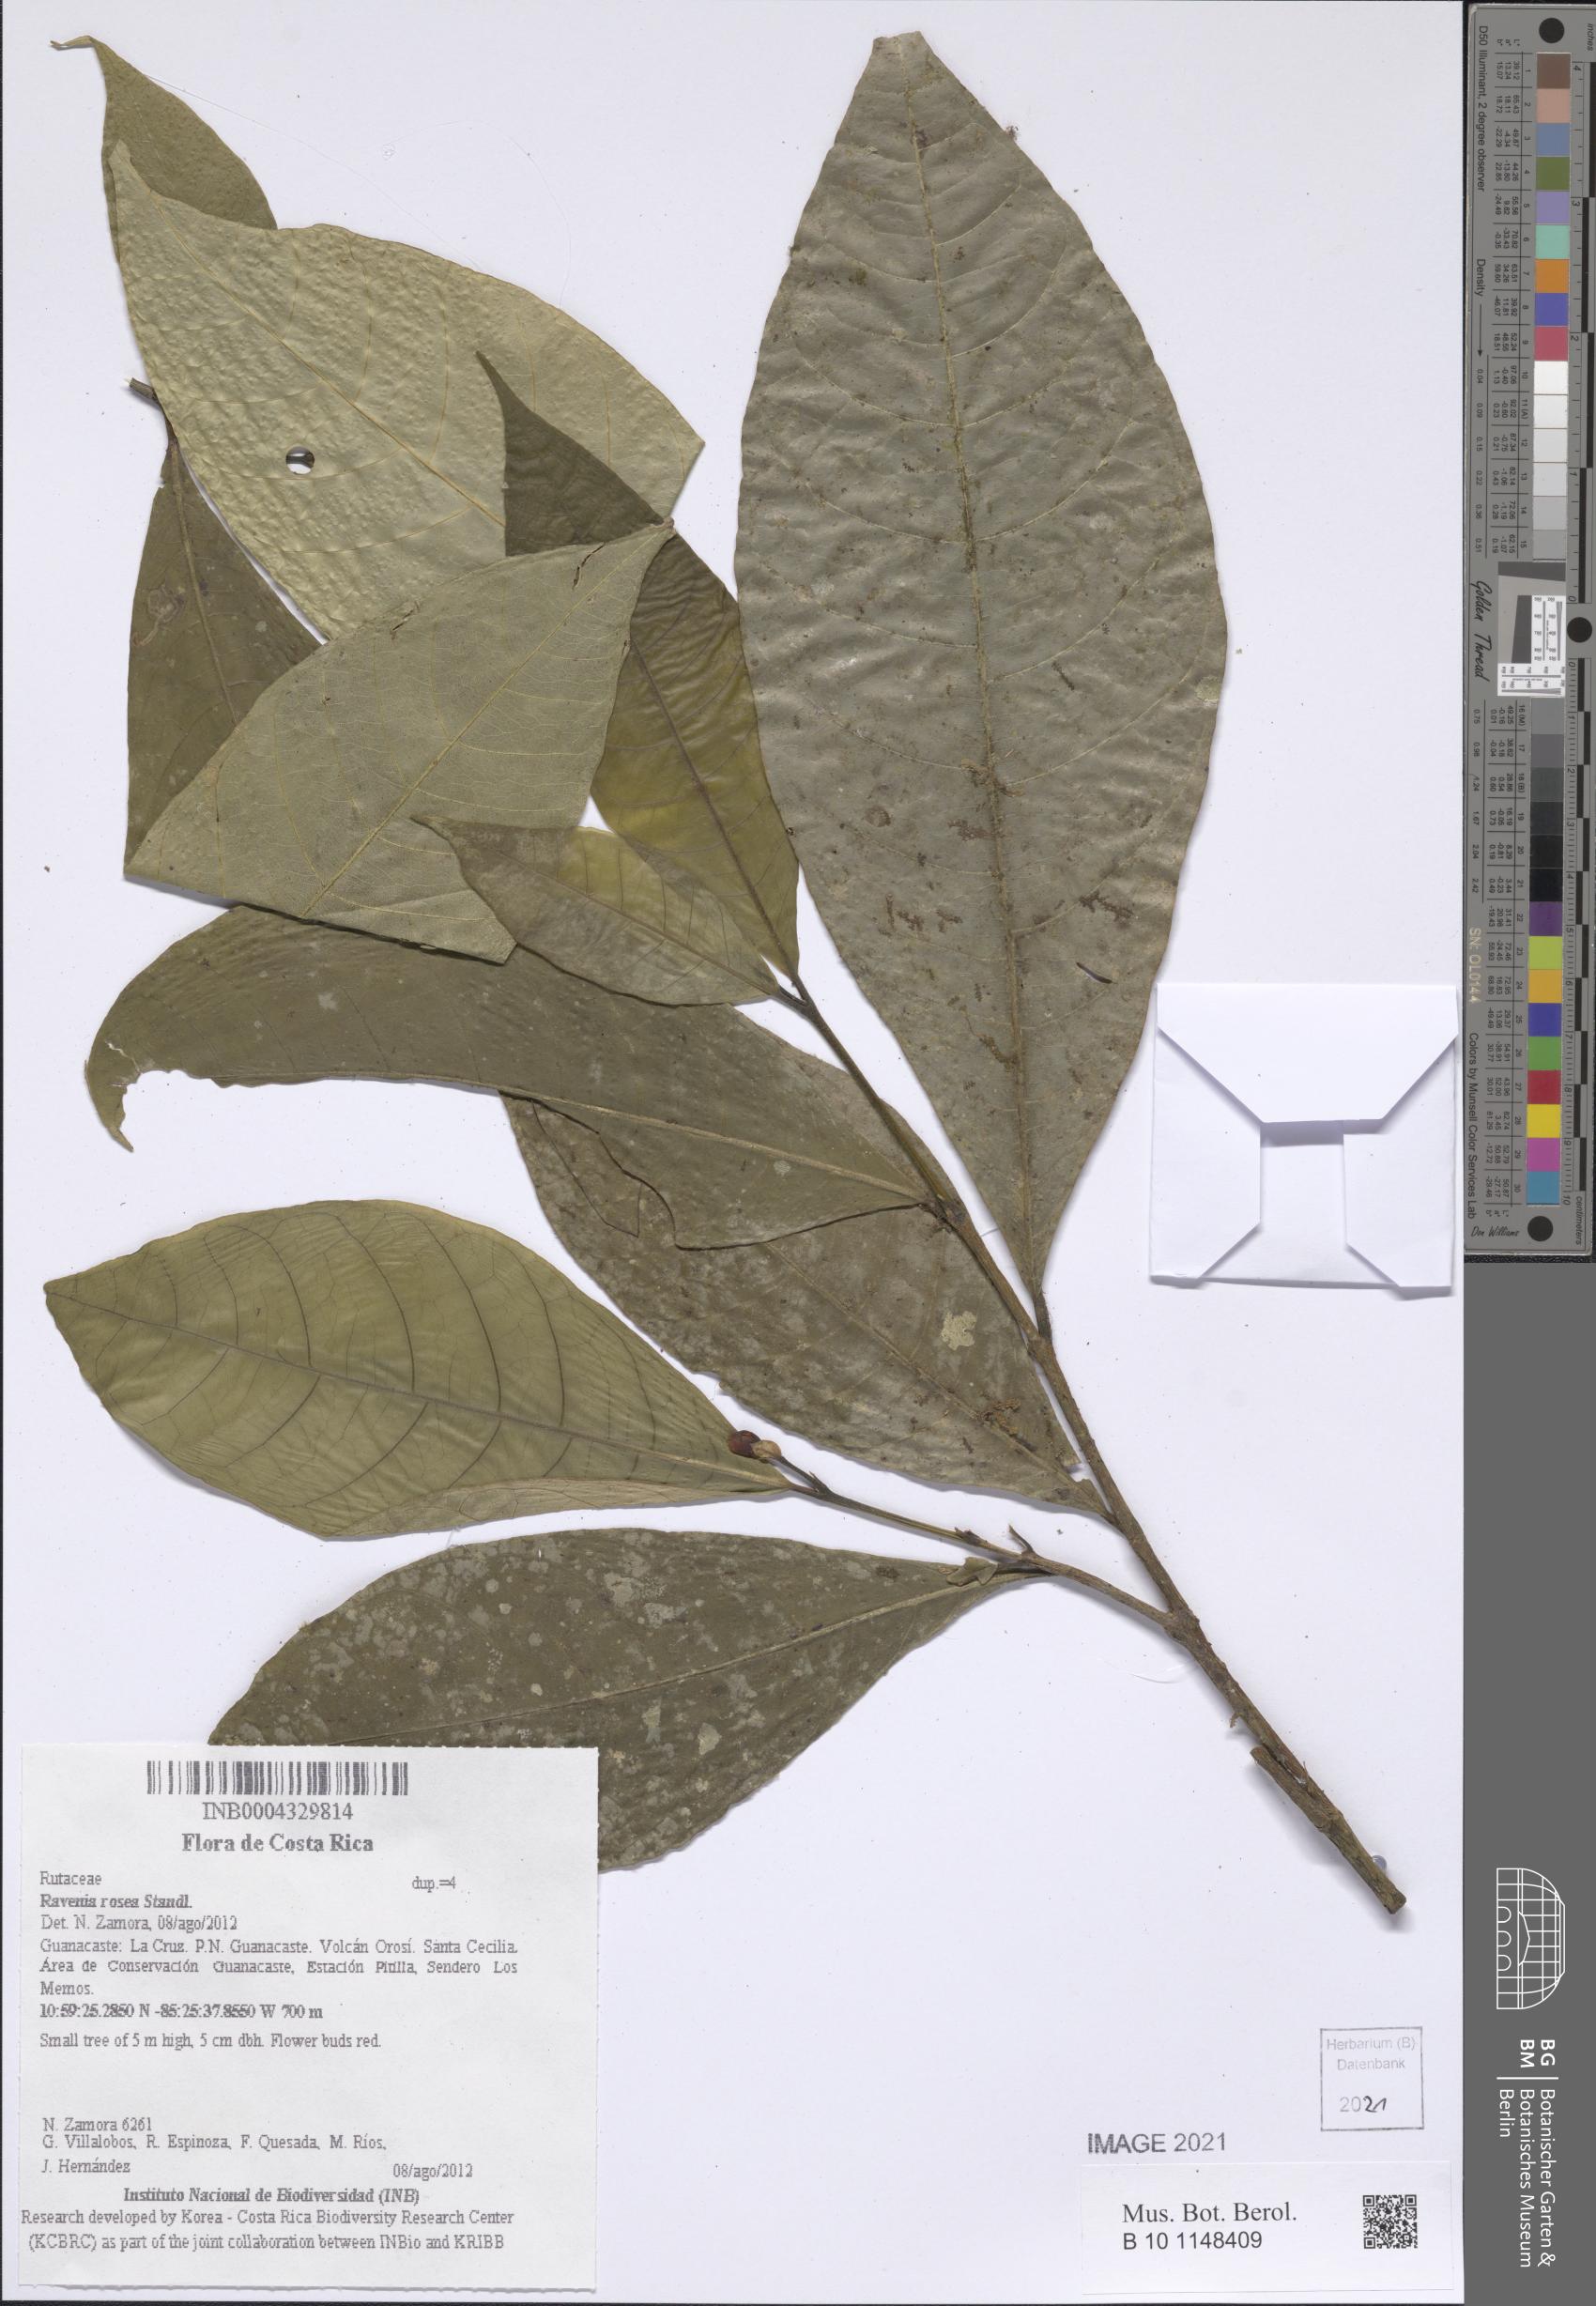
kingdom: Plantae
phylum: Tracheophyta
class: Magnoliopsida
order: Sapindales
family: Rutaceae
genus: Ravenia
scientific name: Ravenia rosea
